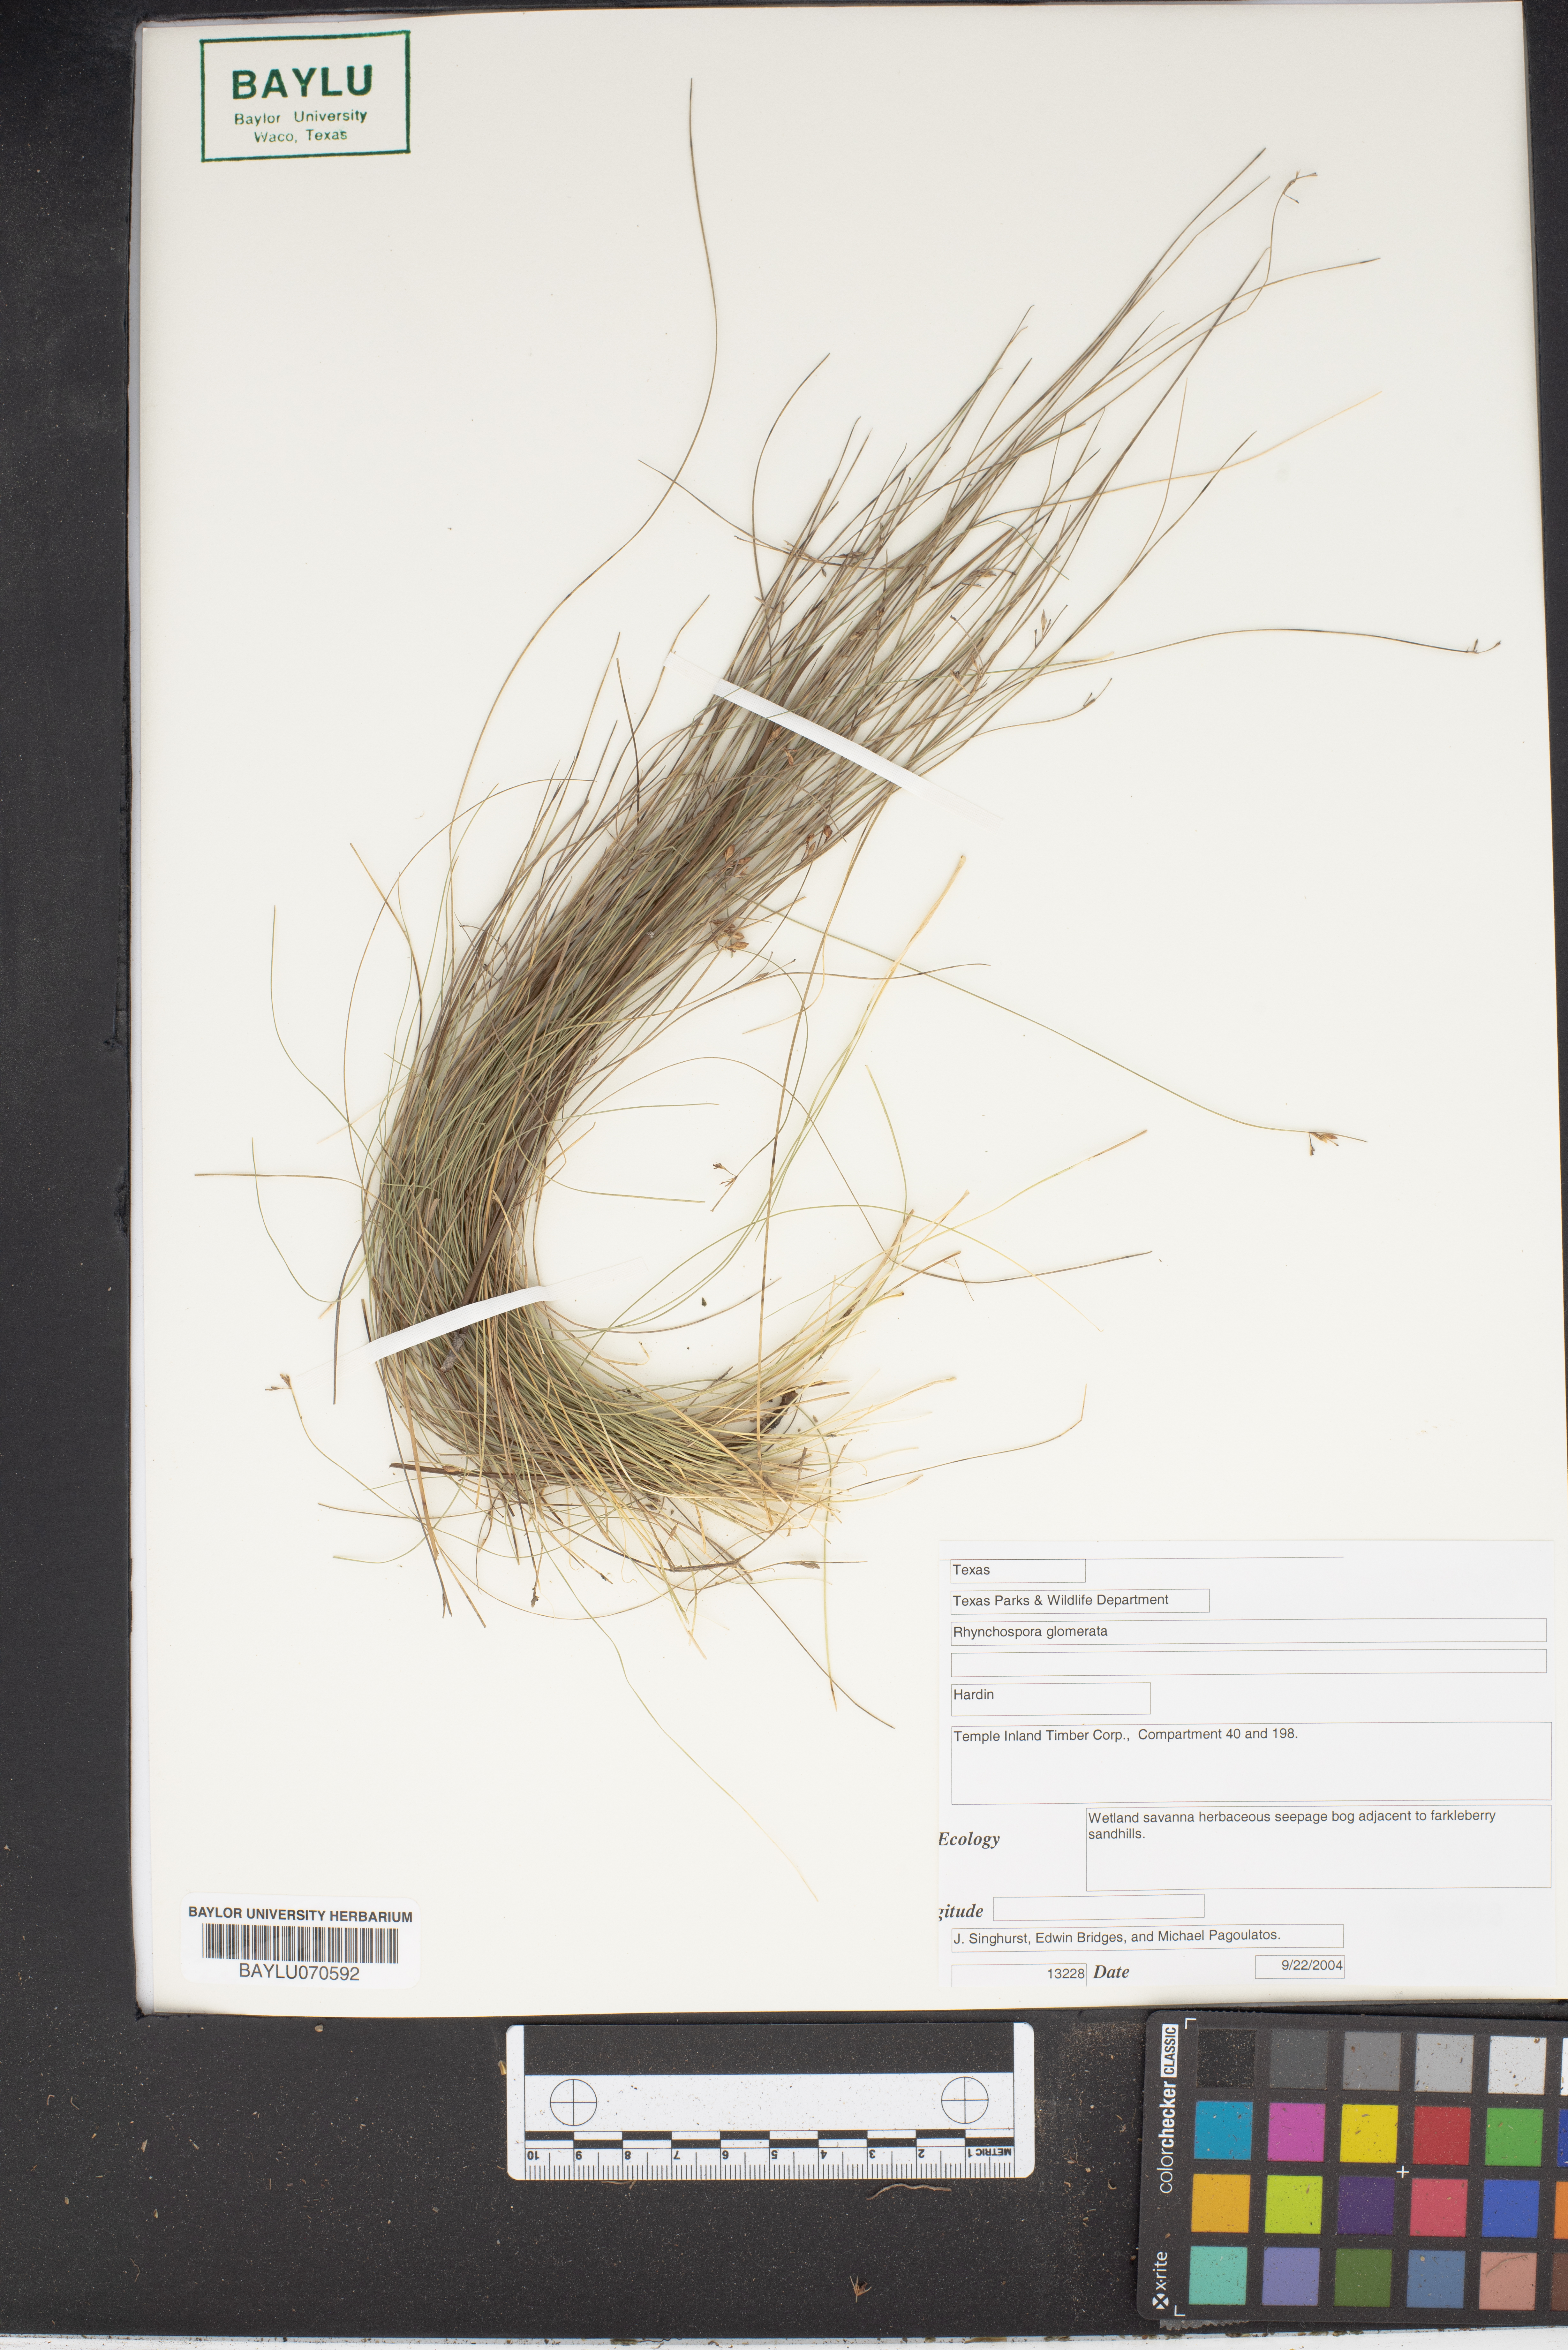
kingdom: Plantae
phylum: Tracheophyta
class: Liliopsida
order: Poales
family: Cyperaceae
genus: Rhynchospora
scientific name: Rhynchospora glomerata
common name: Cluster beak sedge
